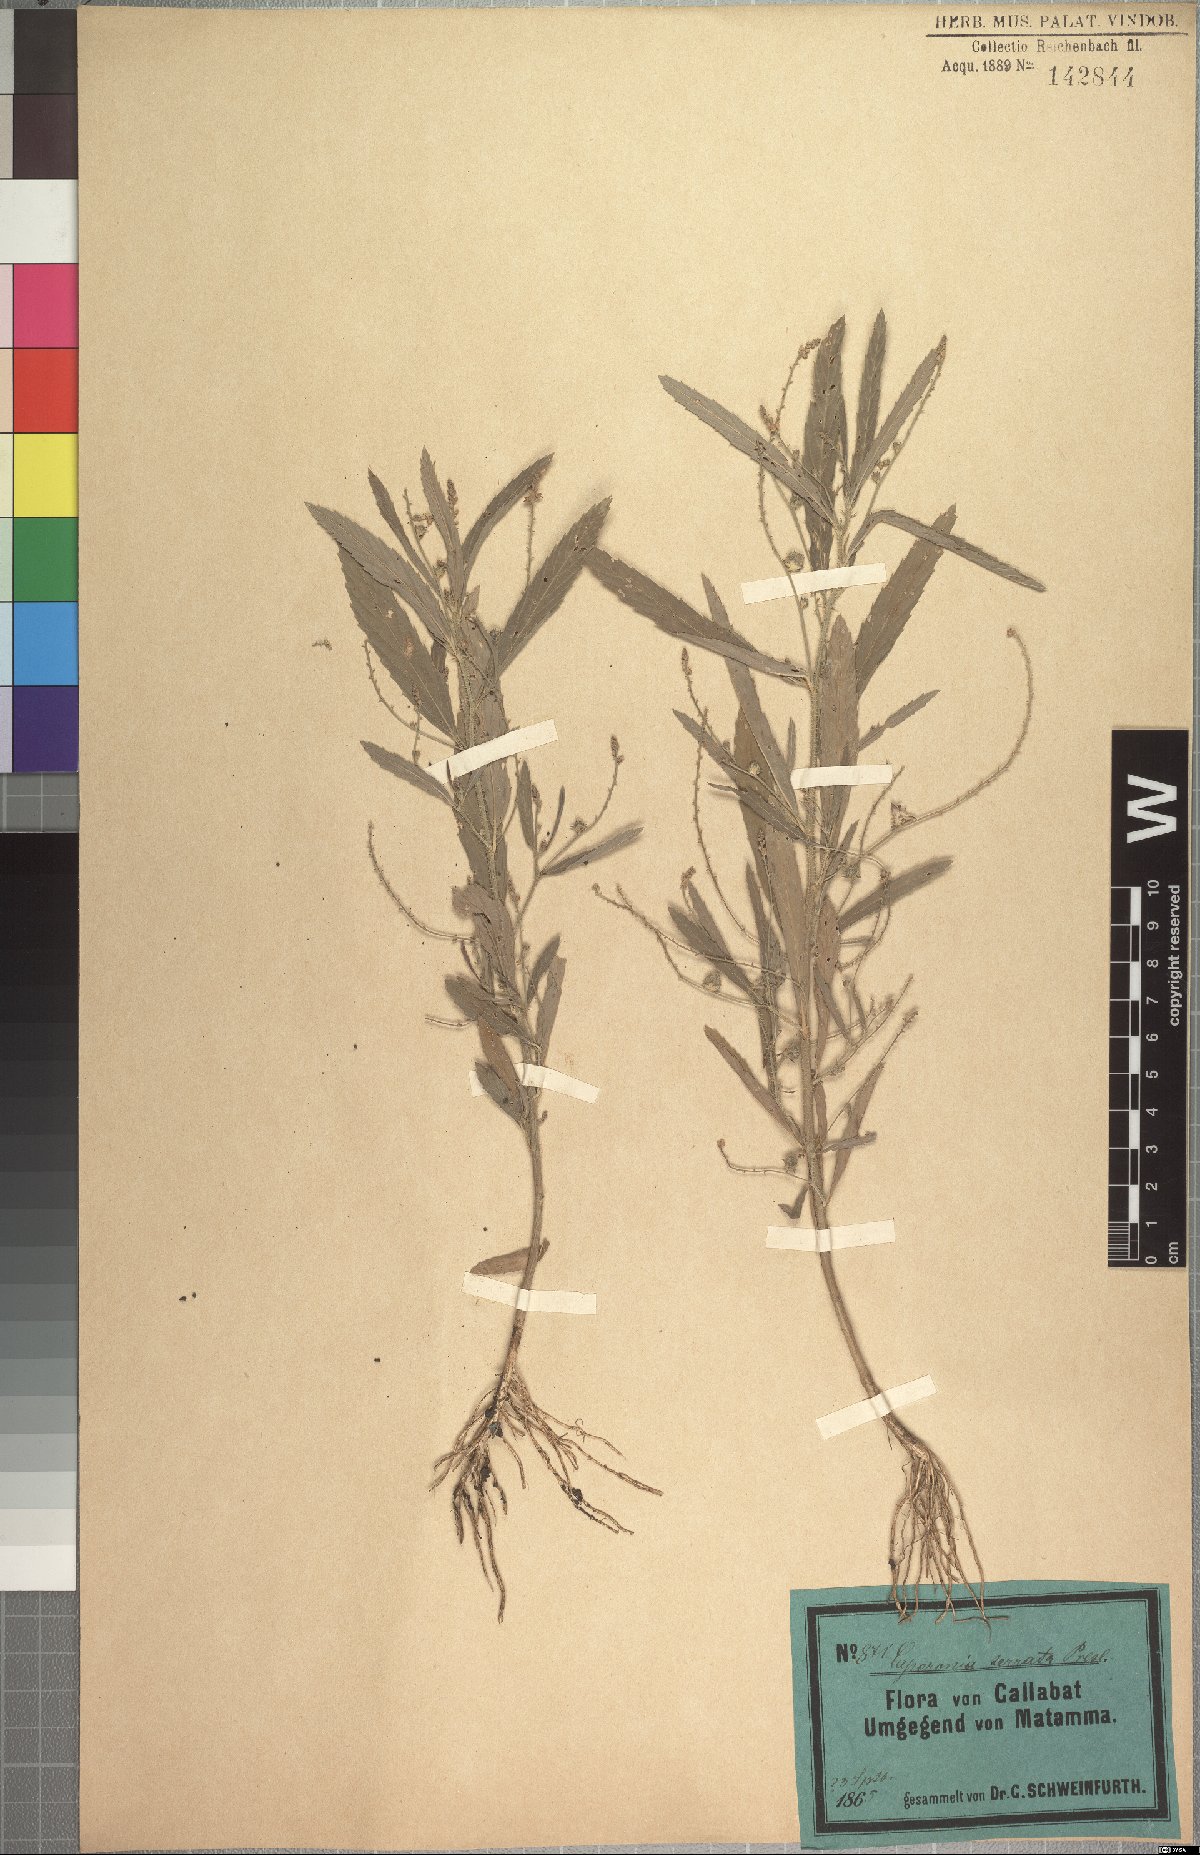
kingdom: Plantae
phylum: Tracheophyta
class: Magnoliopsida
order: Malpighiales
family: Euphorbiaceae
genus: Caperonia
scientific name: Caperonia serrata
